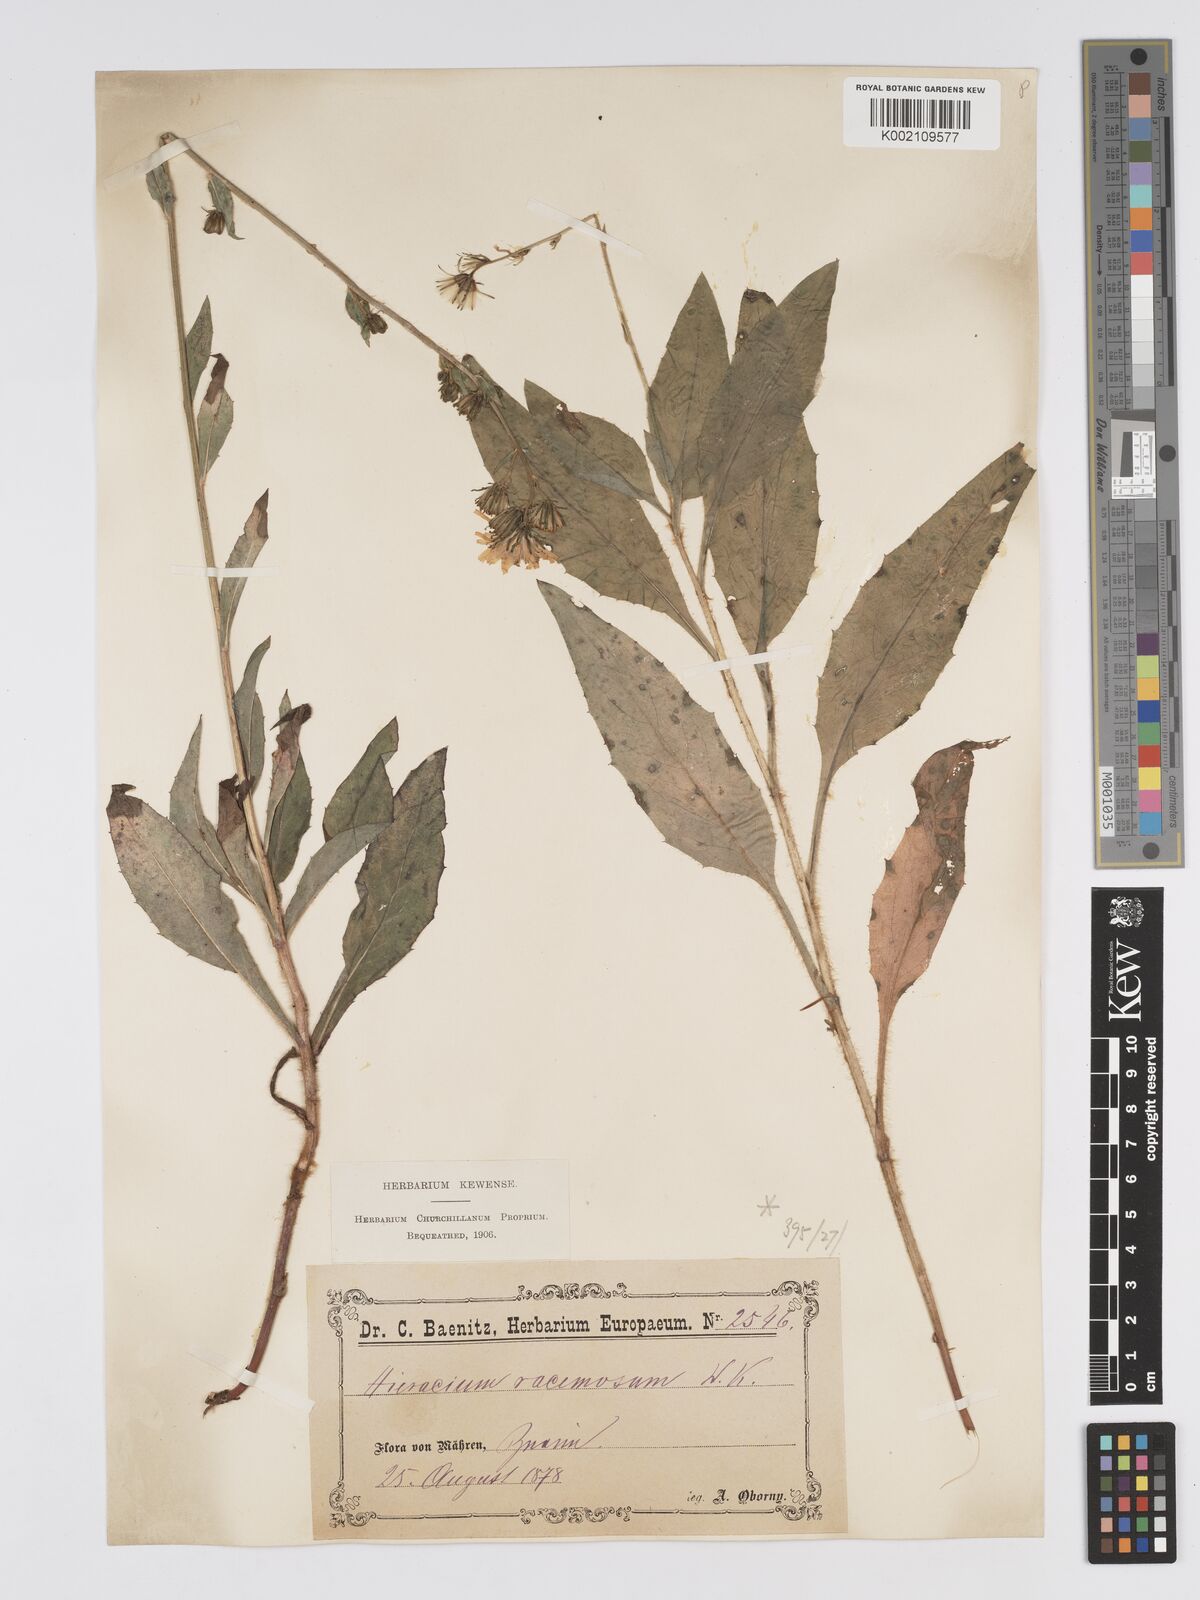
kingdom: Plantae
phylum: Tracheophyta
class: Magnoliopsida
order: Asterales
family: Asteraceae
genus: Hieracium
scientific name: Hieracium racemosum
